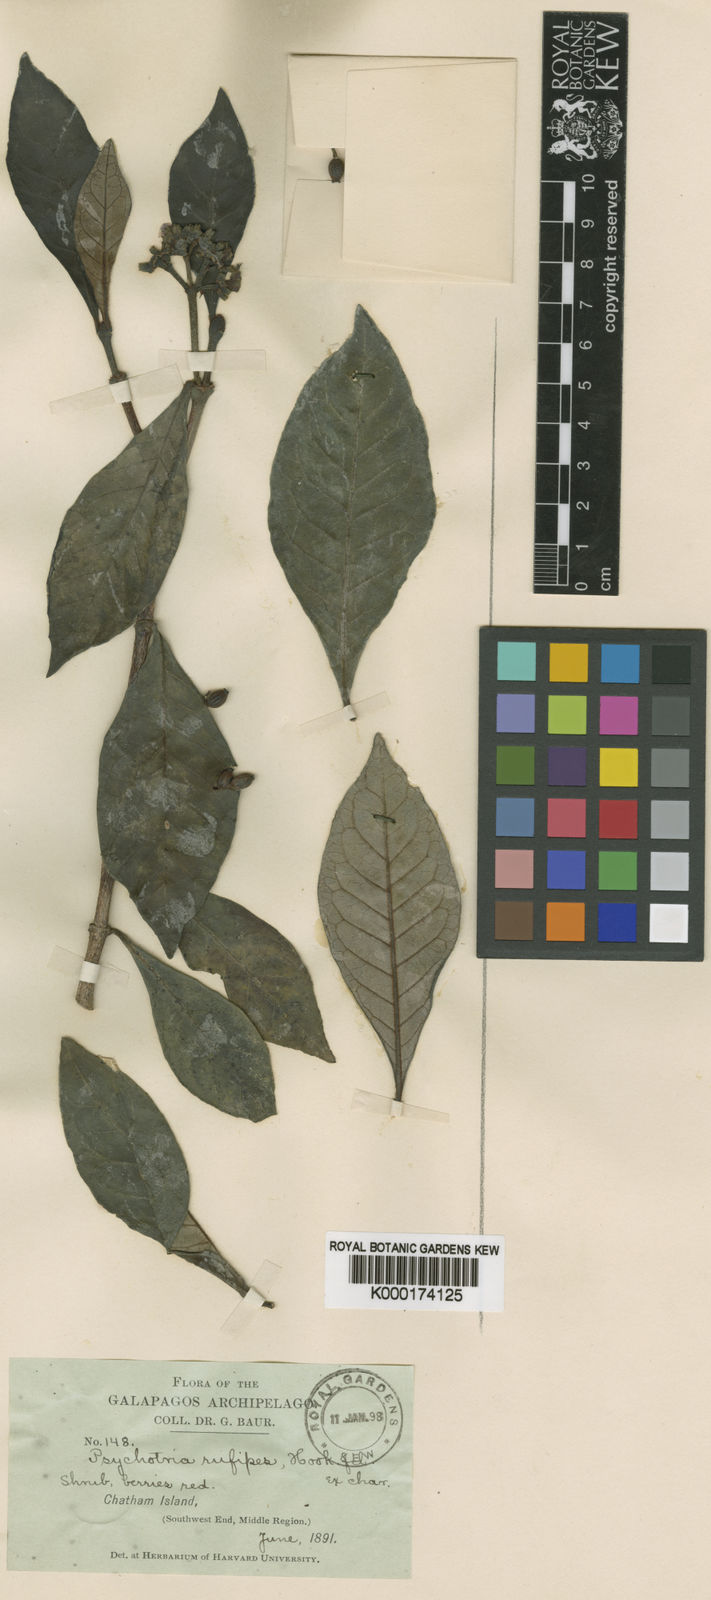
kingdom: Plantae
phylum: Tracheophyta
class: Magnoliopsida
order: Gentianales
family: Rubiaceae
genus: Psychotria
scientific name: Psychotria rufipes
